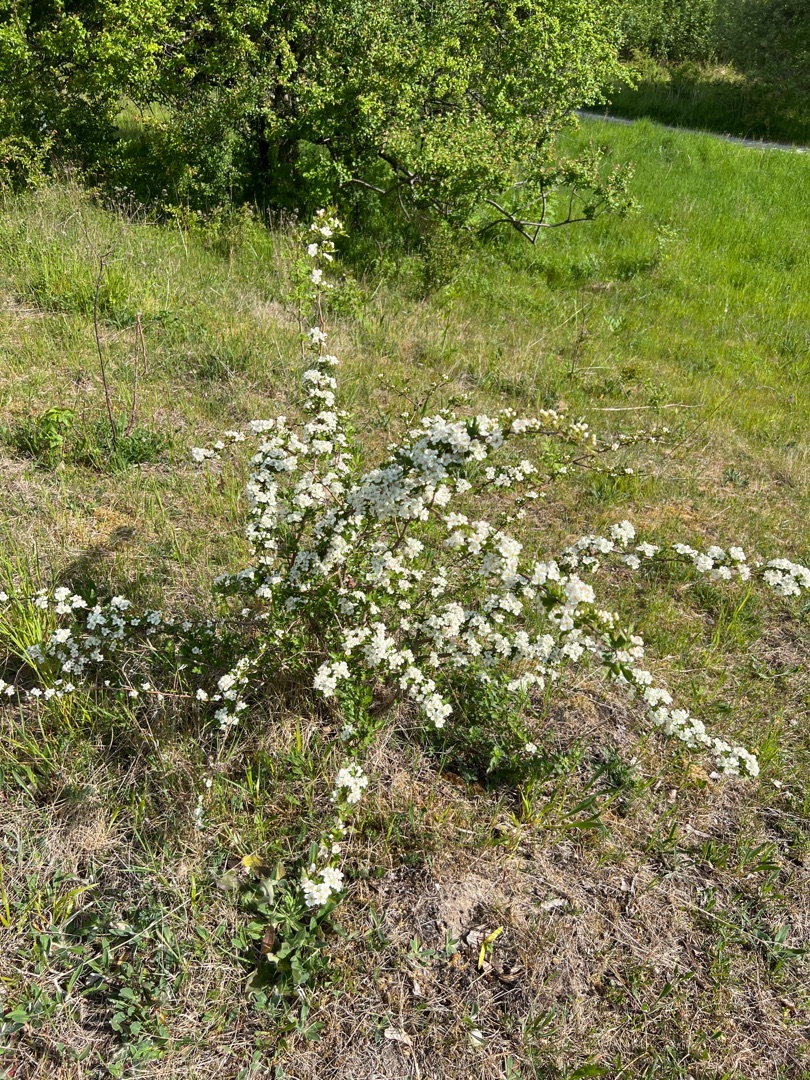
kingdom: Plantae
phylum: Tracheophyta
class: Magnoliopsida
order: Rosales
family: Rosaceae
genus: Crataegus
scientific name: Crataegus monogyna
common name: Engriflet hvidtjørn
